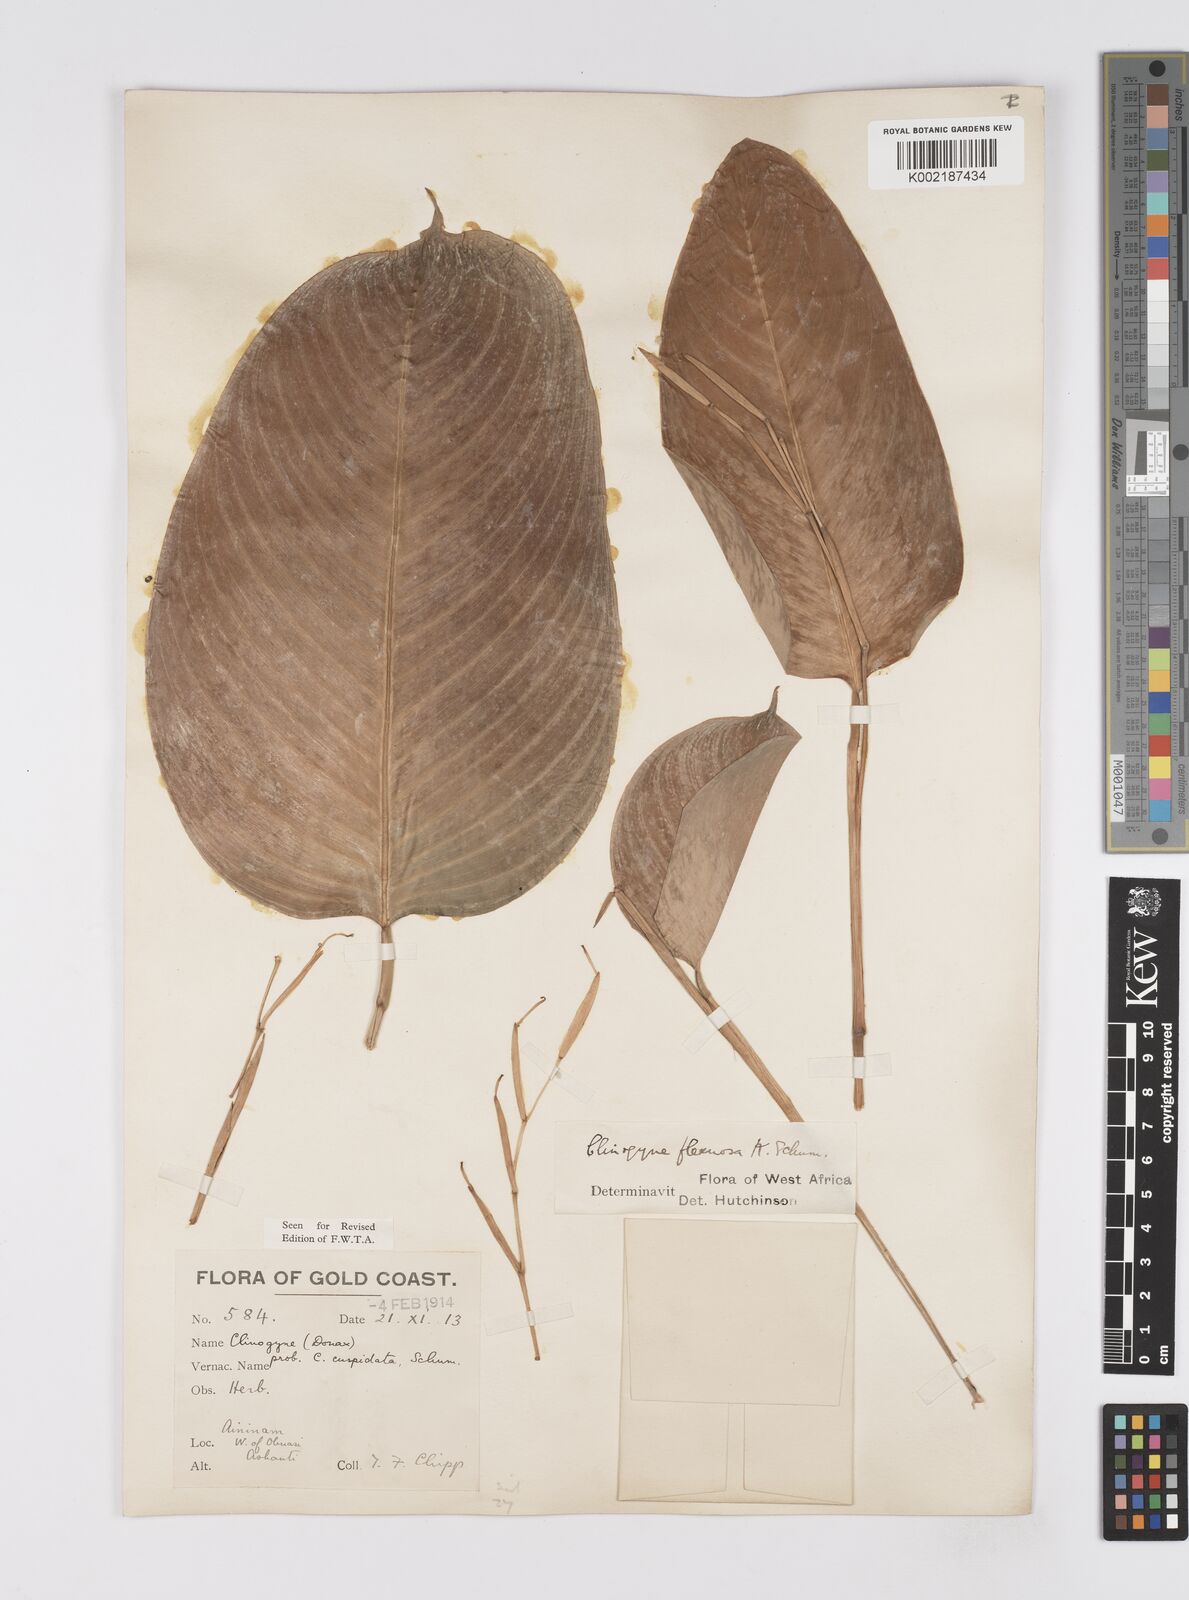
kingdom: Plantae
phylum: Tracheophyta
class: Liliopsida
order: Zingiberales
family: Marantaceae
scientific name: Marantaceae
